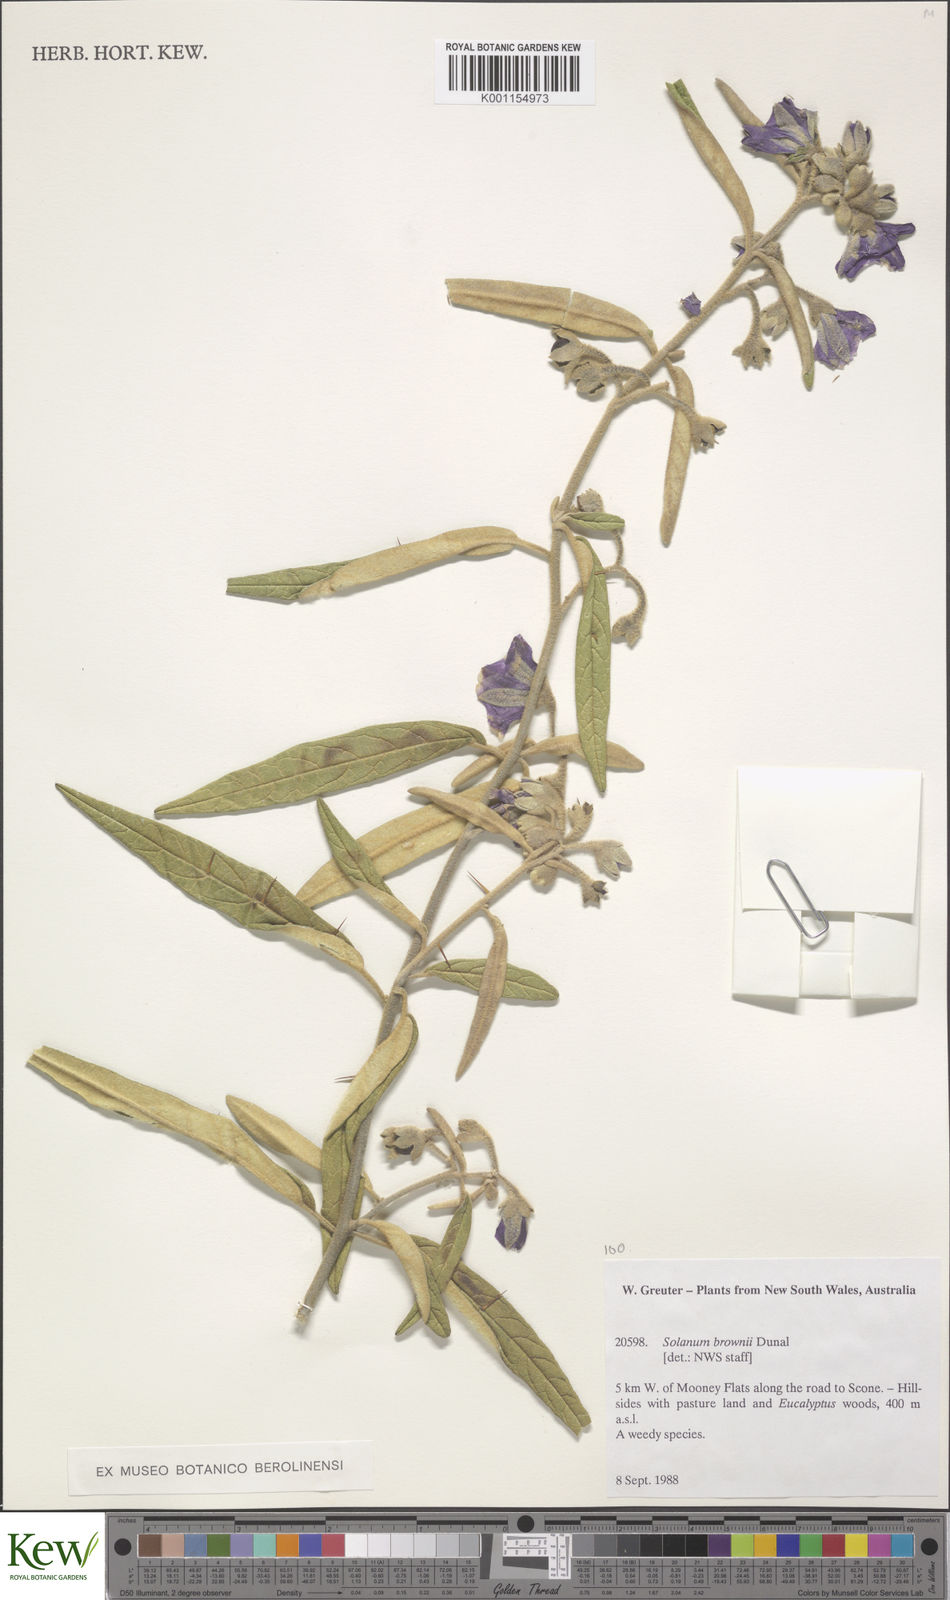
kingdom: Plantae
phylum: Tracheophyta
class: Magnoliopsida
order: Solanales
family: Solanaceae
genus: Solanum
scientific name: Solanum brownii
